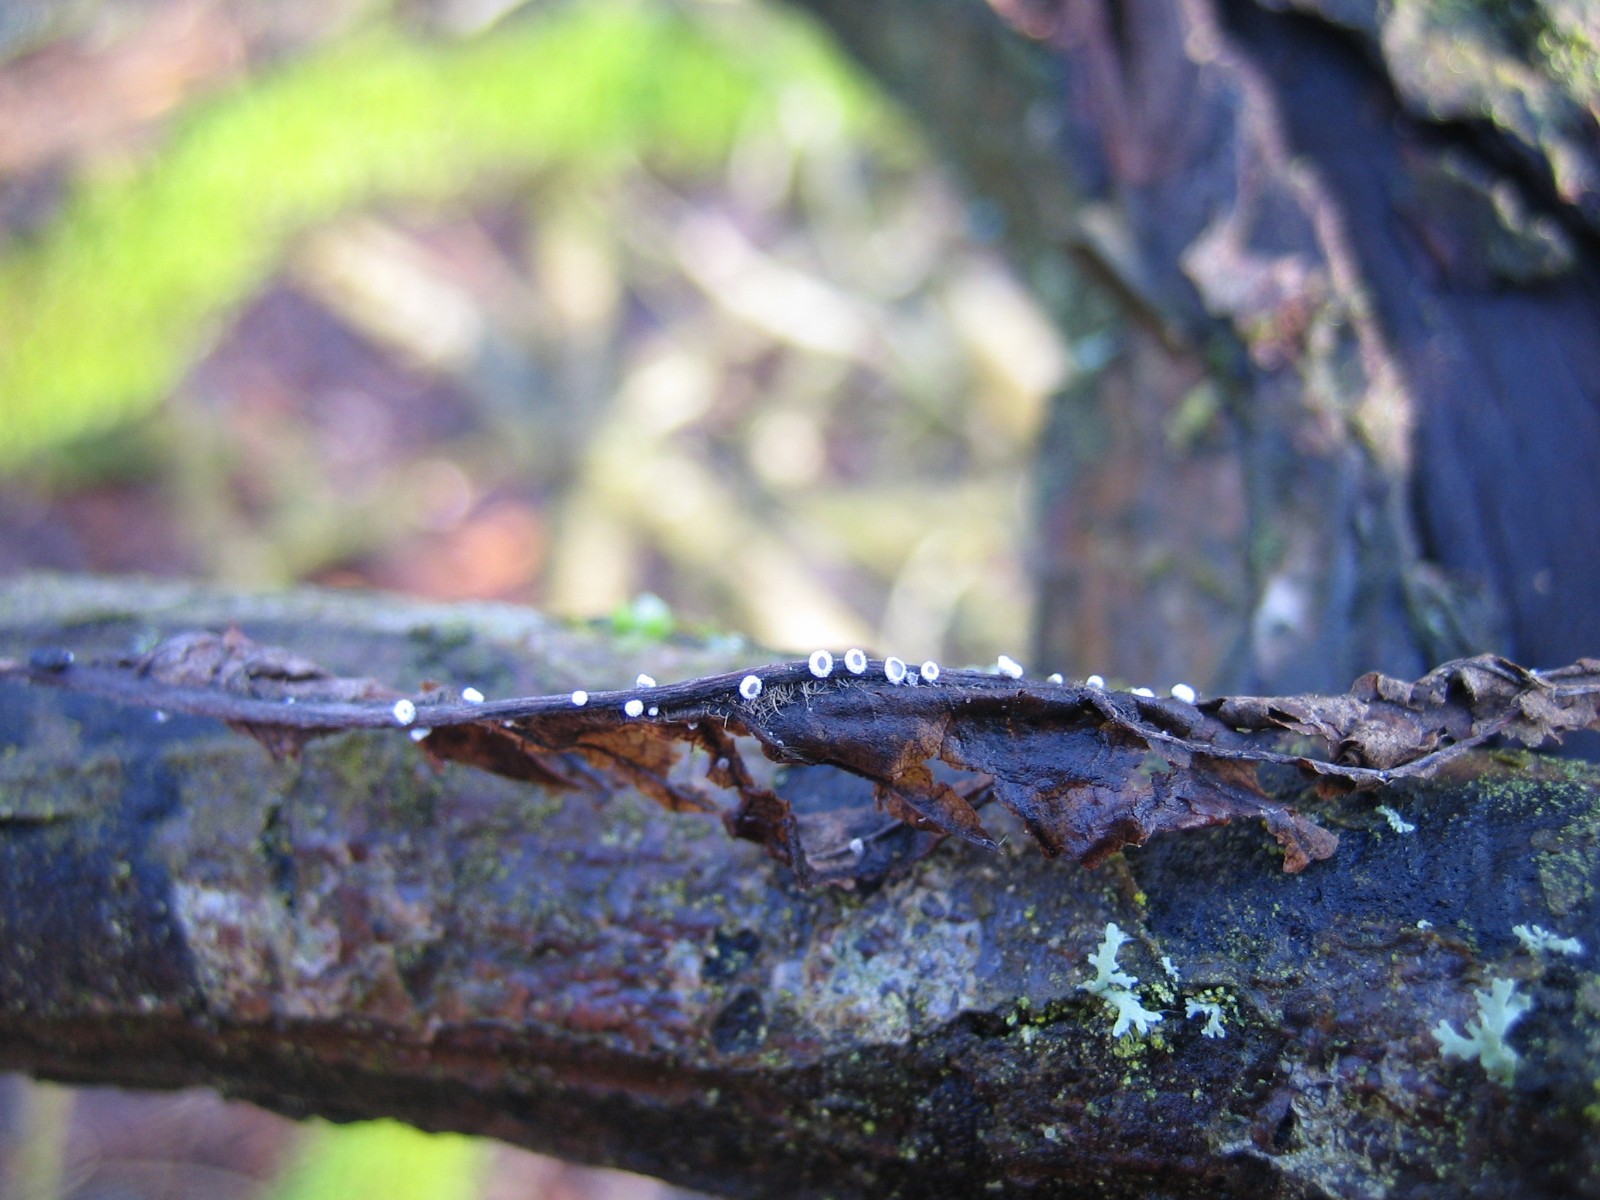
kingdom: Fungi
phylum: Basidiomycota
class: Agaricomycetes
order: Agaricales
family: Niaceae
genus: Lachnella
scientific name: Lachnella alboviolascens
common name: grå frynserede
